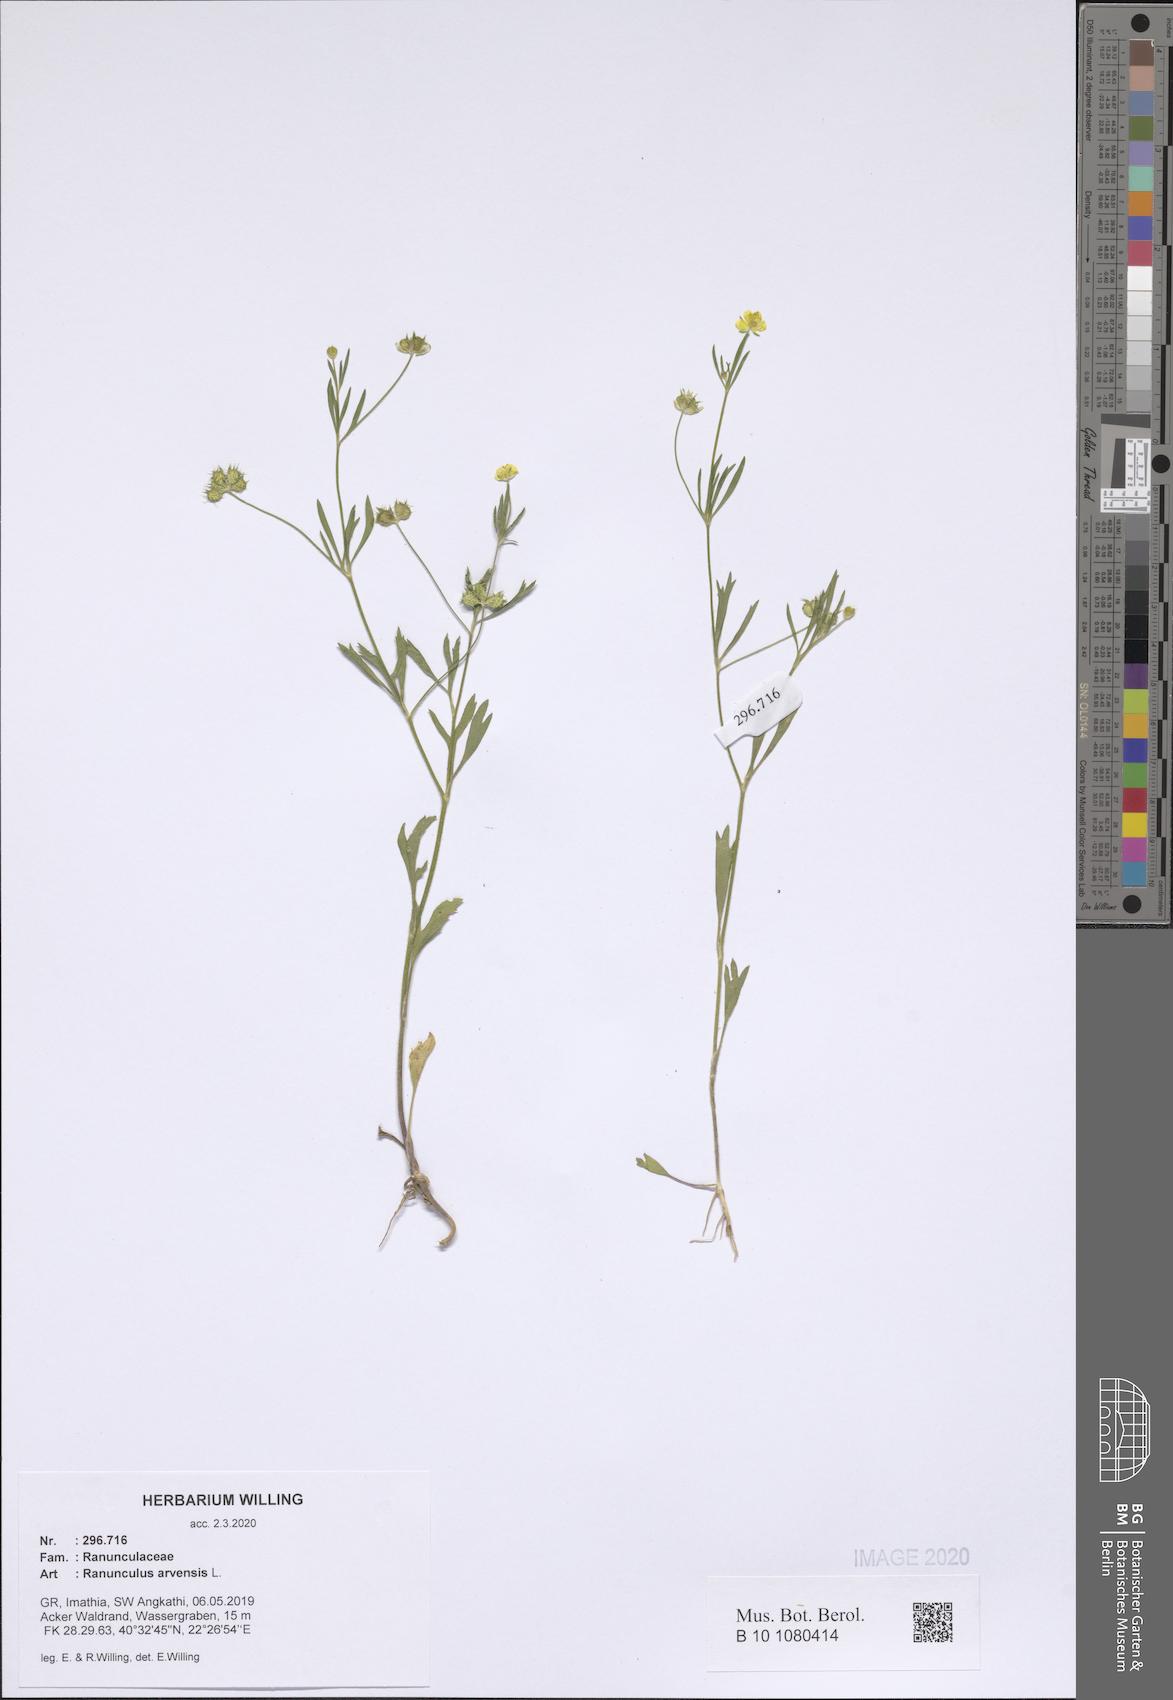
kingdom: Plantae
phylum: Tracheophyta
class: Magnoliopsida
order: Ranunculales
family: Ranunculaceae
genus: Ranunculus
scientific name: Ranunculus arvensis
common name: Corn buttercup
